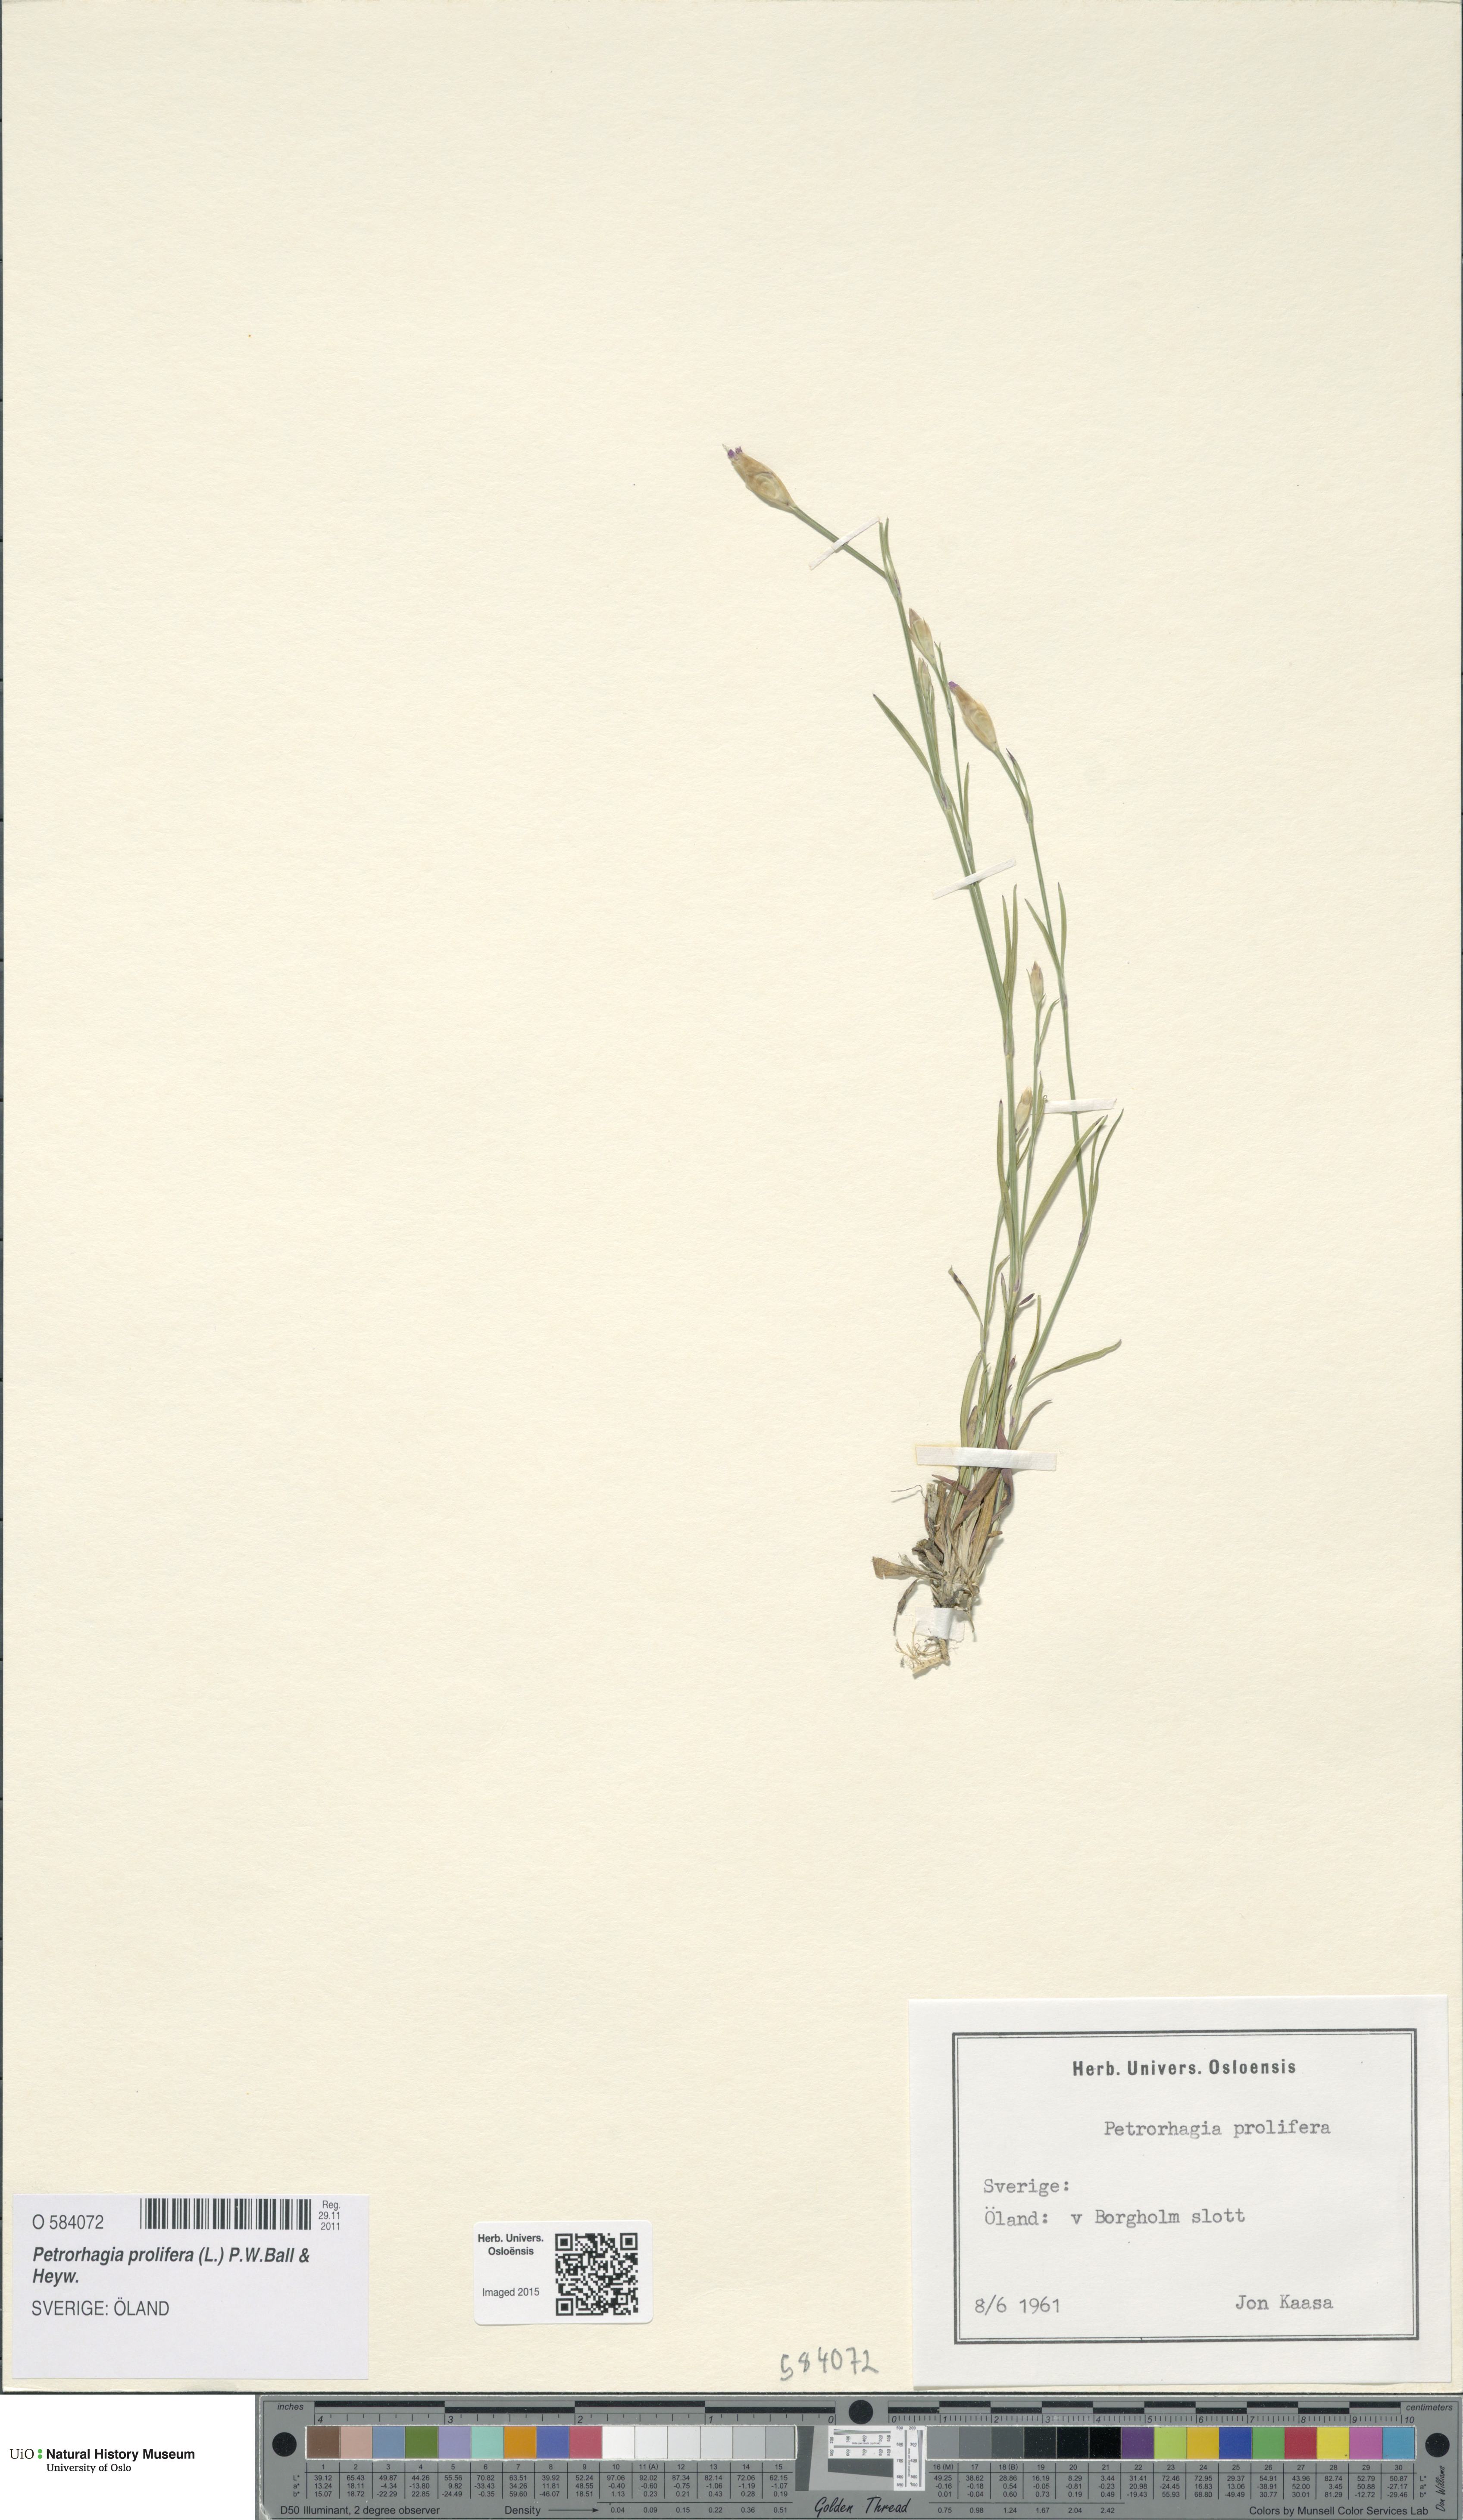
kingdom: Plantae
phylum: Tracheophyta
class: Magnoliopsida
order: Caryophyllales
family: Caryophyllaceae
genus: Petrorhagia
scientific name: Petrorhagia prolifera
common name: Proliferous pink
